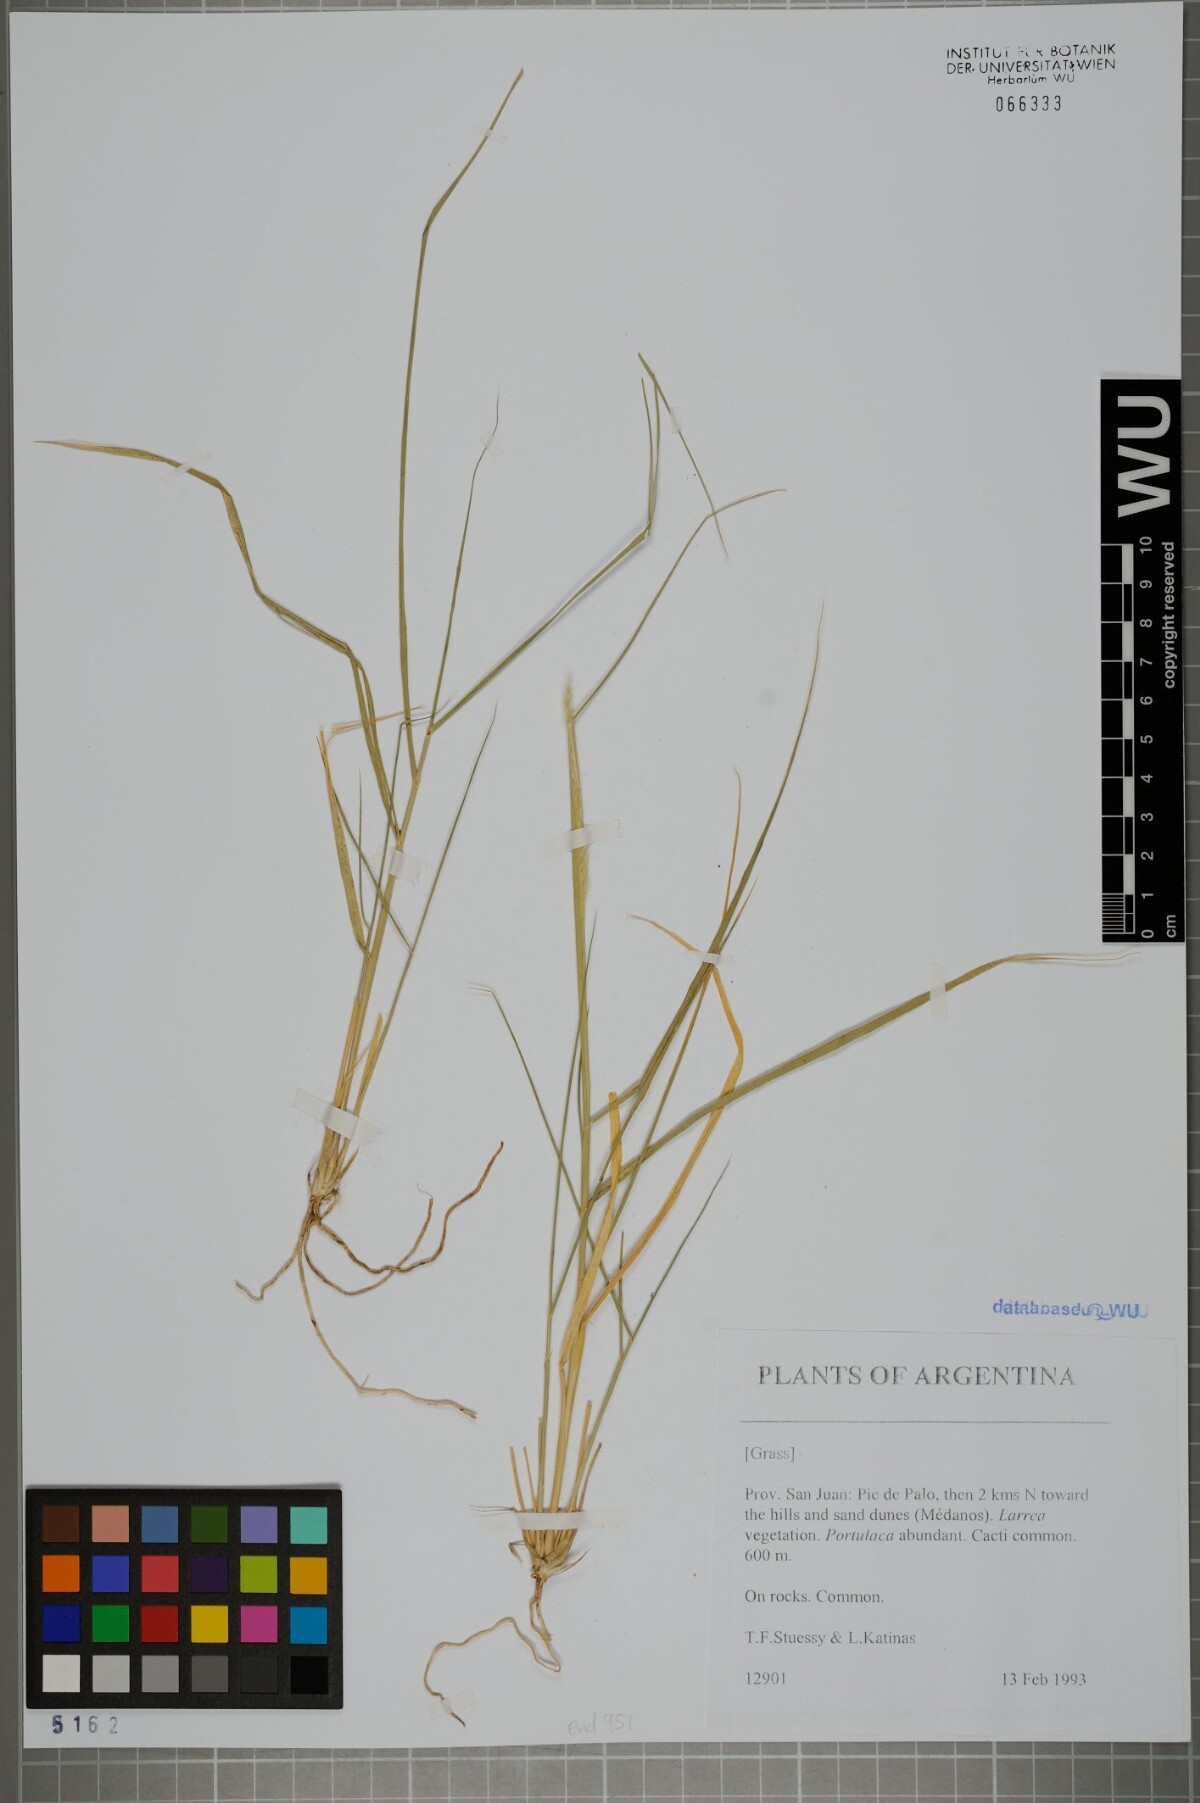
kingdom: Plantae
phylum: Tracheophyta
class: Liliopsida
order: Poales
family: Poaceae
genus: Pappophorum
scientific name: Pappophorum
